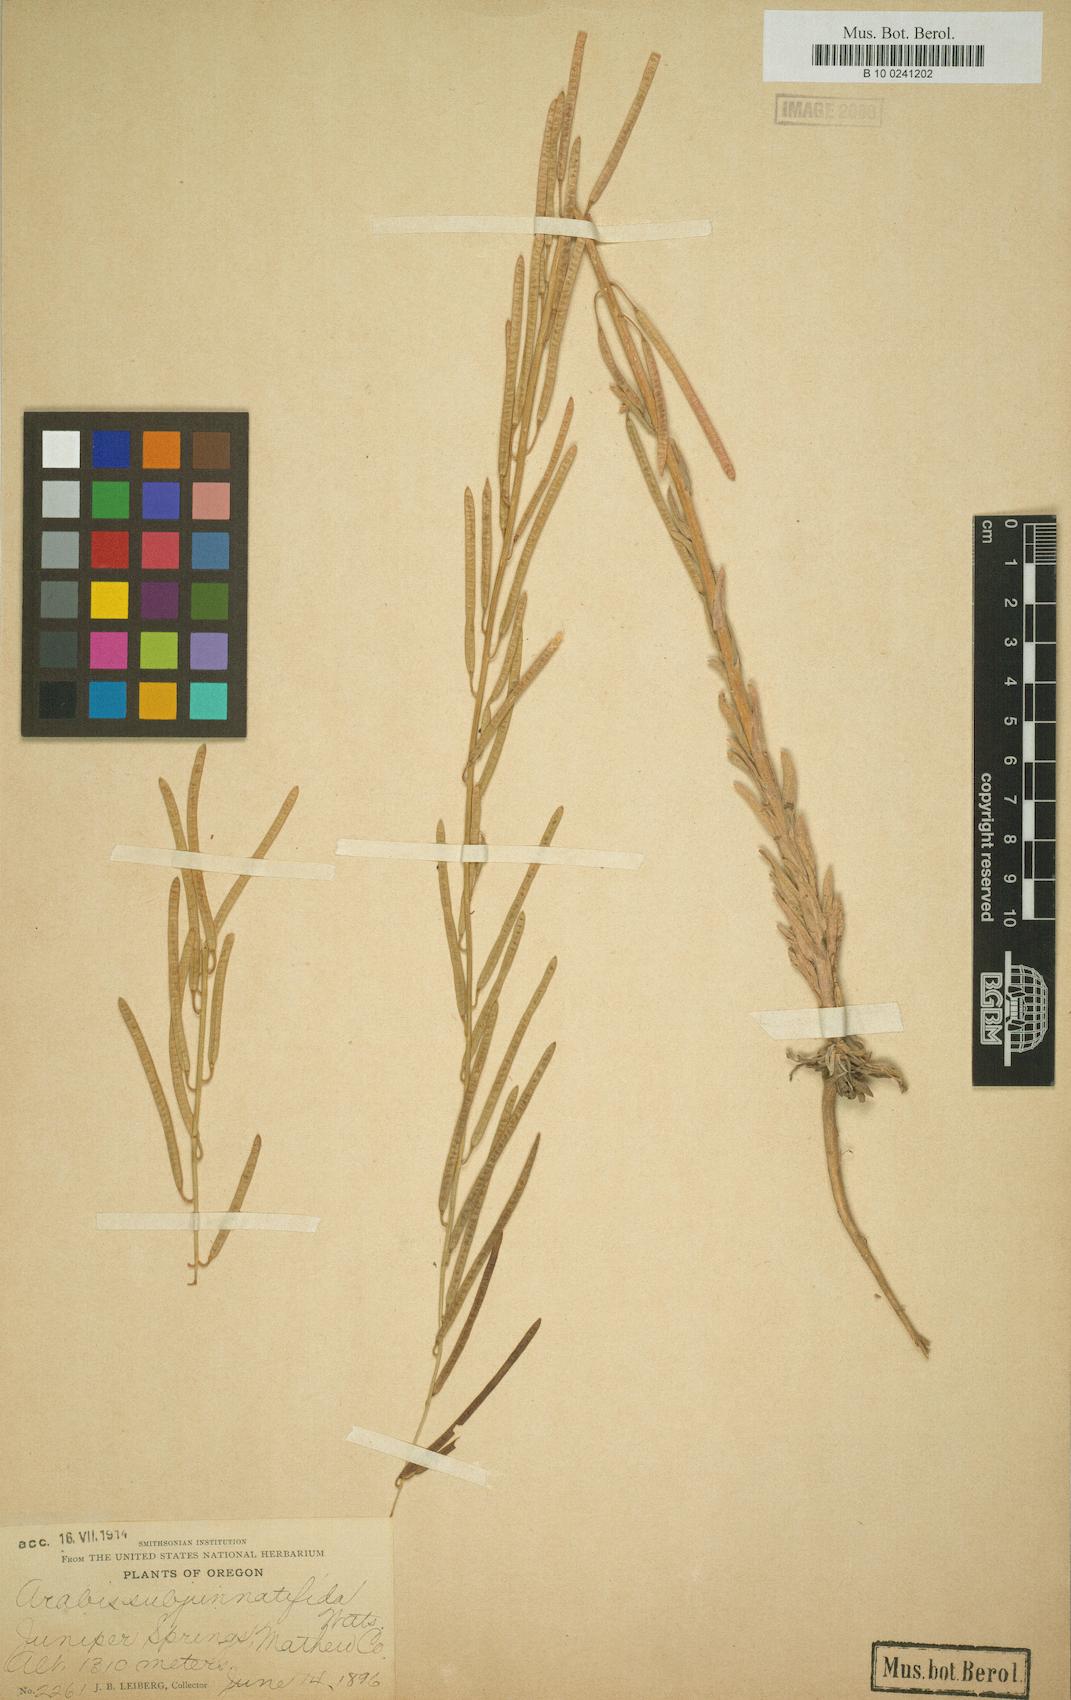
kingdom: Plantae
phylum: Tracheophyta
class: Magnoliopsida
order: Brassicales
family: Brassicaceae
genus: Boechera
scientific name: Boechera subpinnatifida
